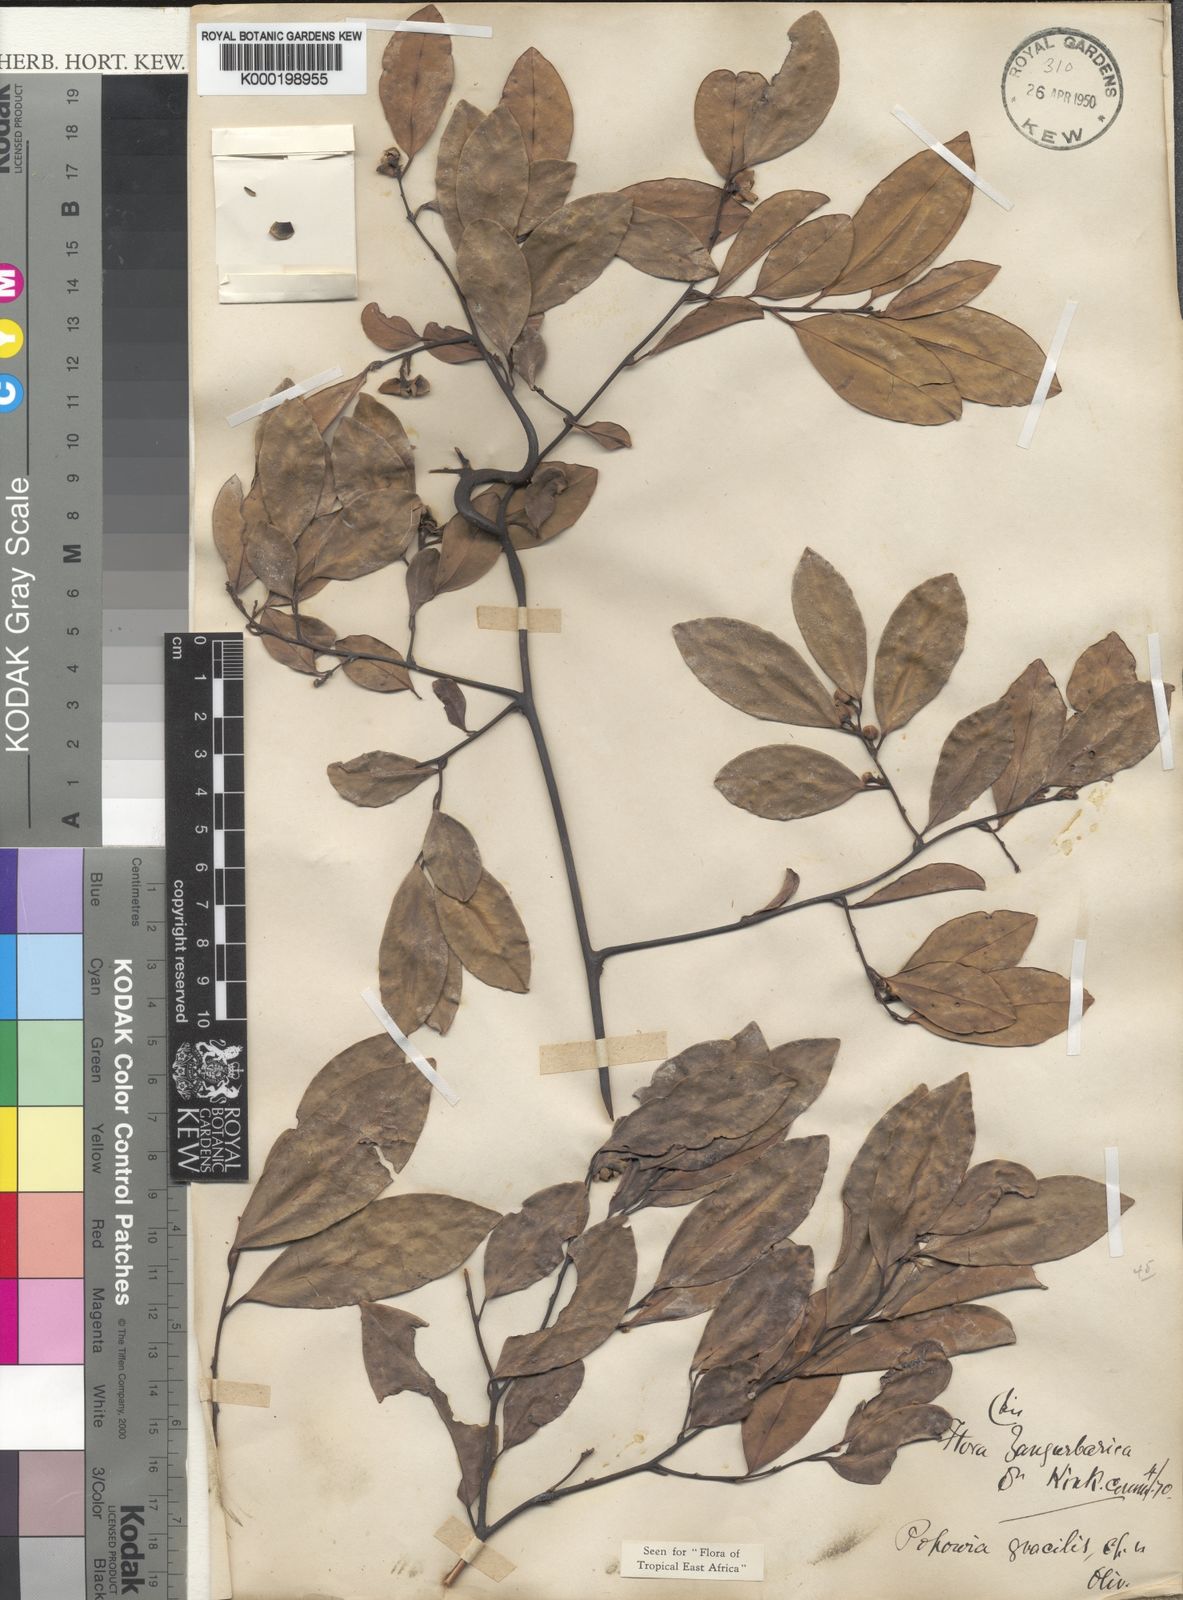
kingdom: Plantae
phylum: Tracheophyta
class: Magnoliopsida
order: Magnoliales
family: Annonaceae
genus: Sphaerocoryne
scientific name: Sphaerocoryne gracilis
